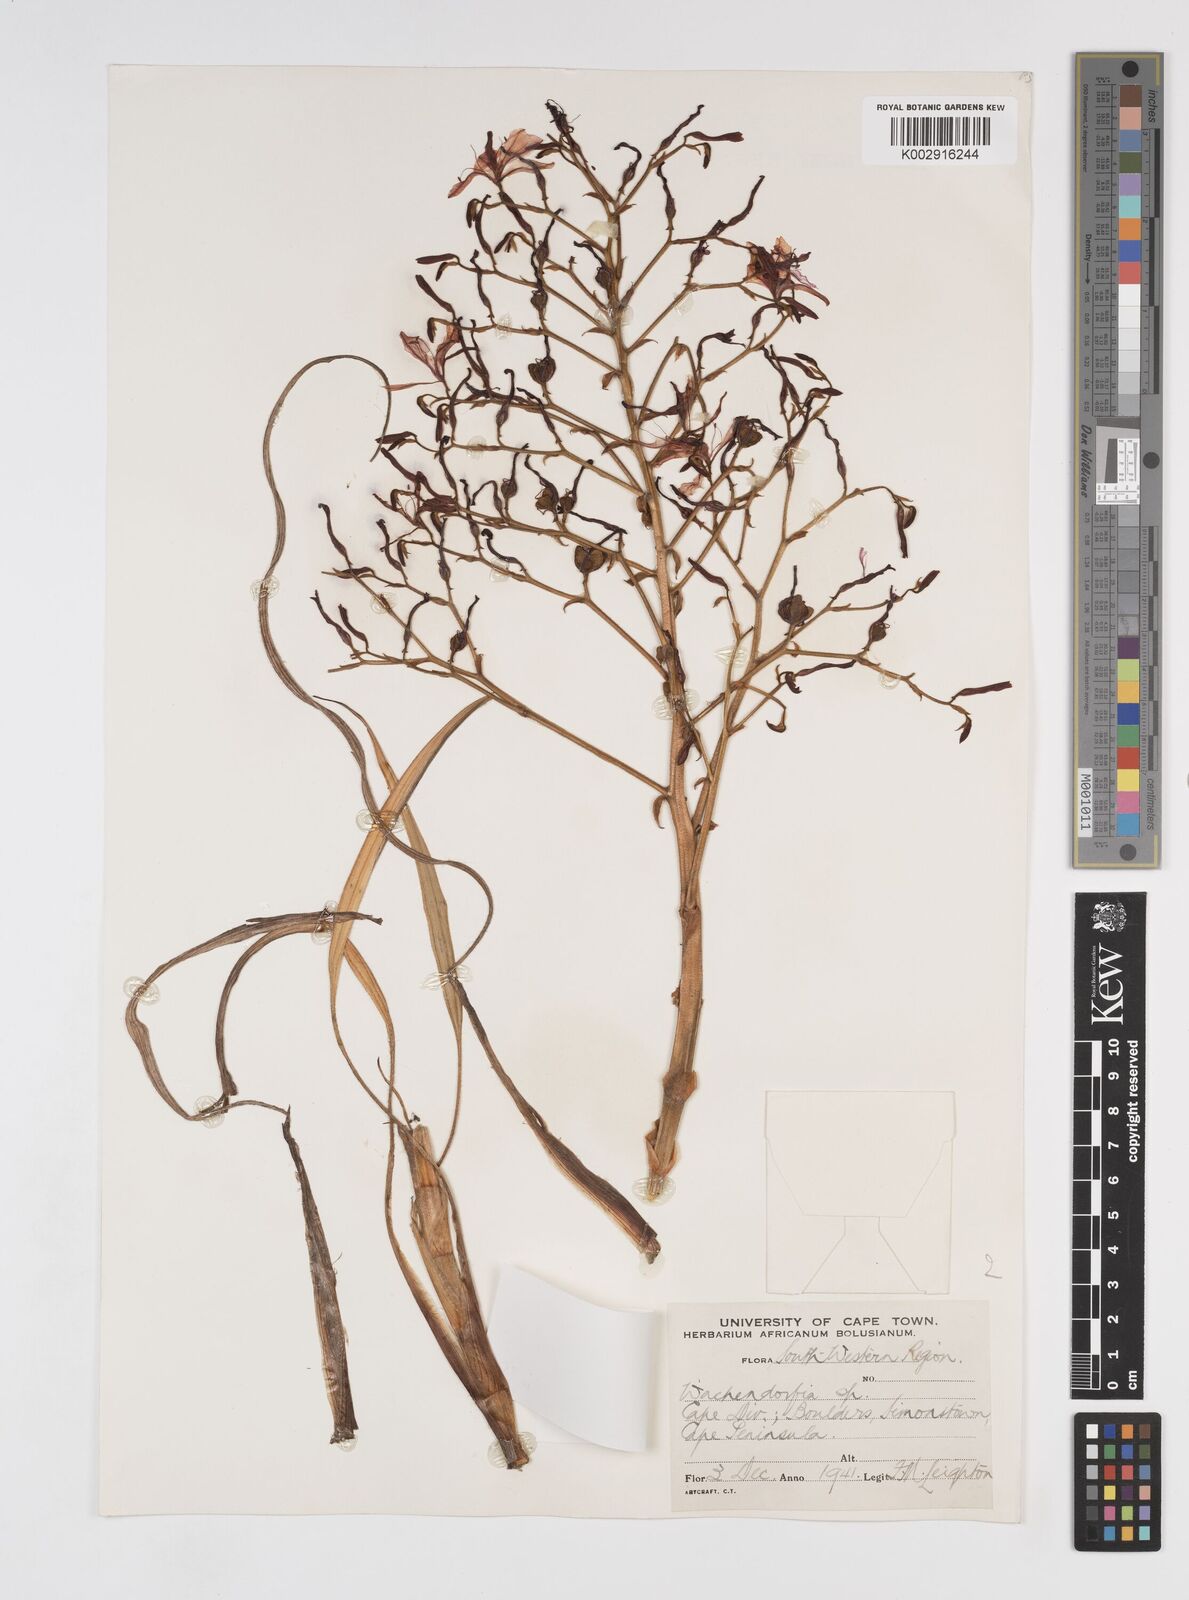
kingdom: Plantae
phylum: Tracheophyta
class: Liliopsida
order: Commelinales
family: Haemodoraceae
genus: Wachendorfia
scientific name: Wachendorfia paniculata
